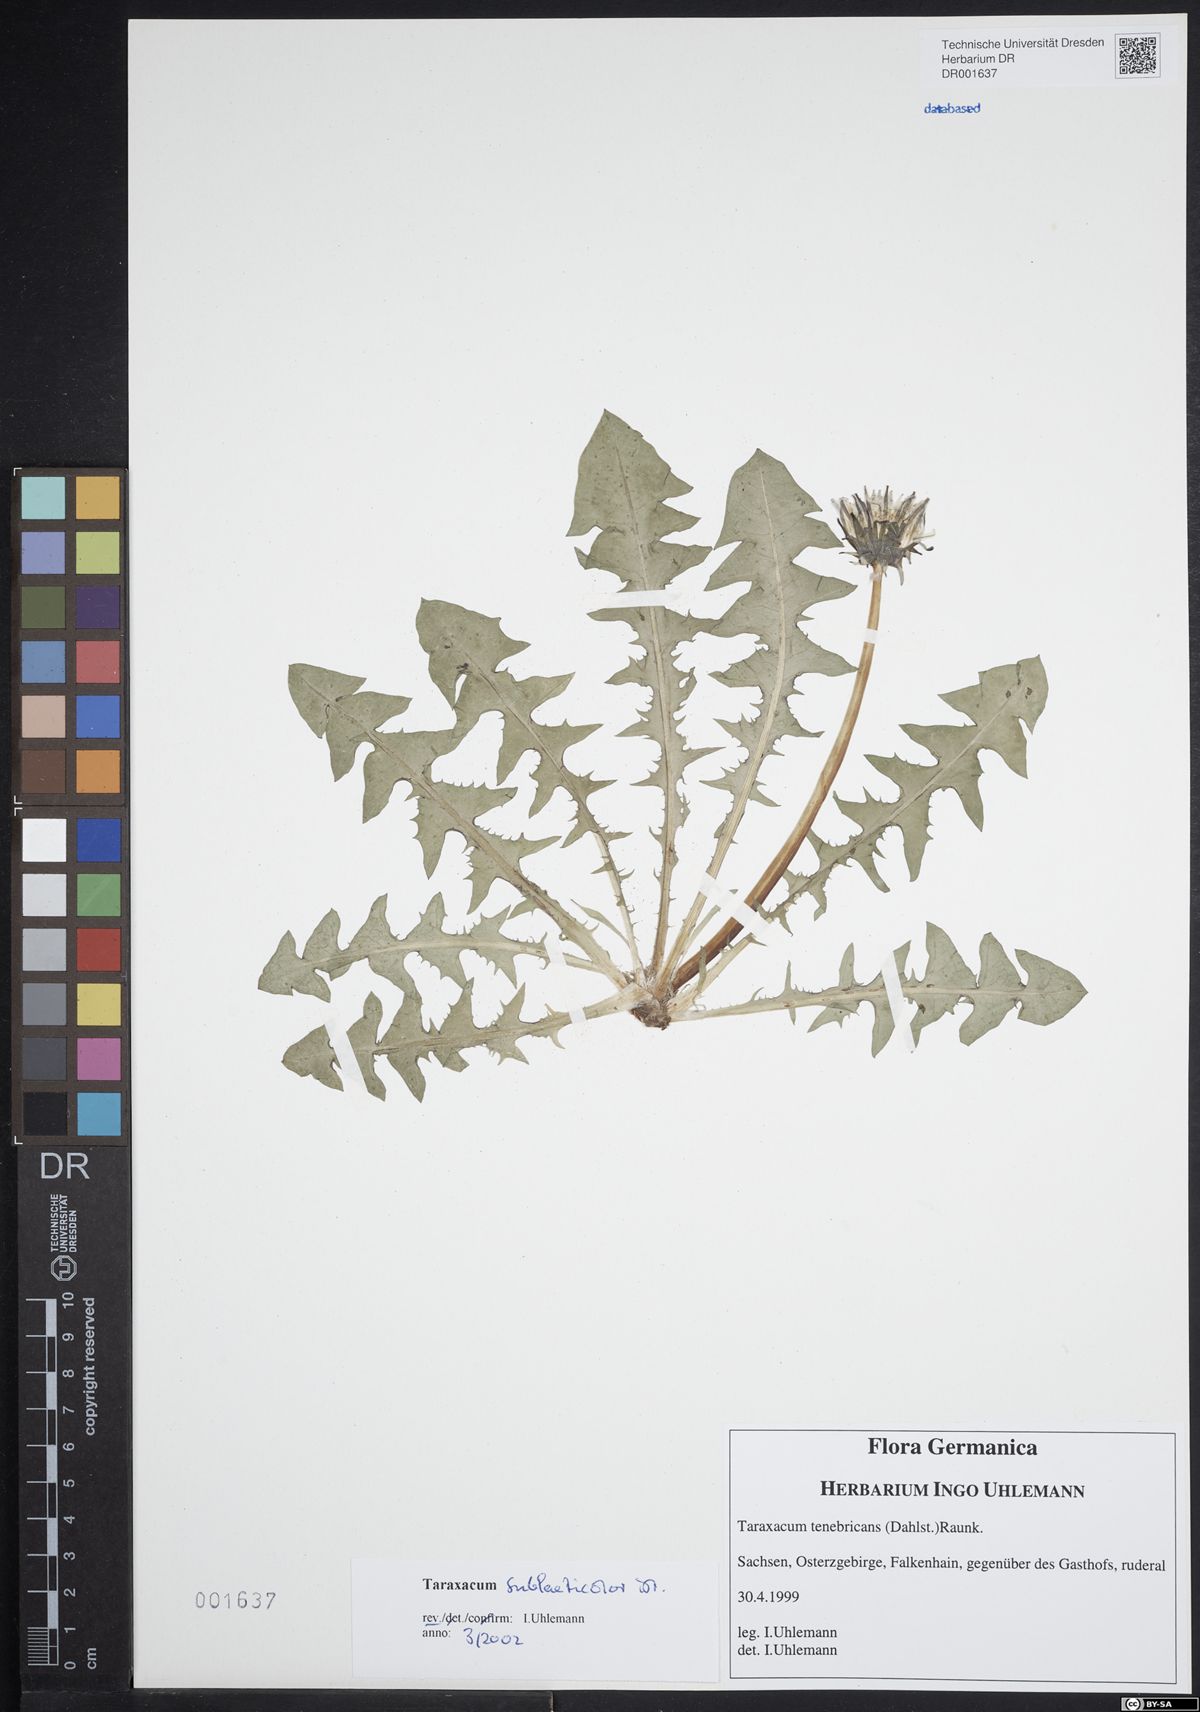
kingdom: Plantae
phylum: Tracheophyta
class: Magnoliopsida
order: Asterales
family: Asteraceae
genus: Taraxacum
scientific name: Taraxacum sublaeticolor
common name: Small-headed dandelion
